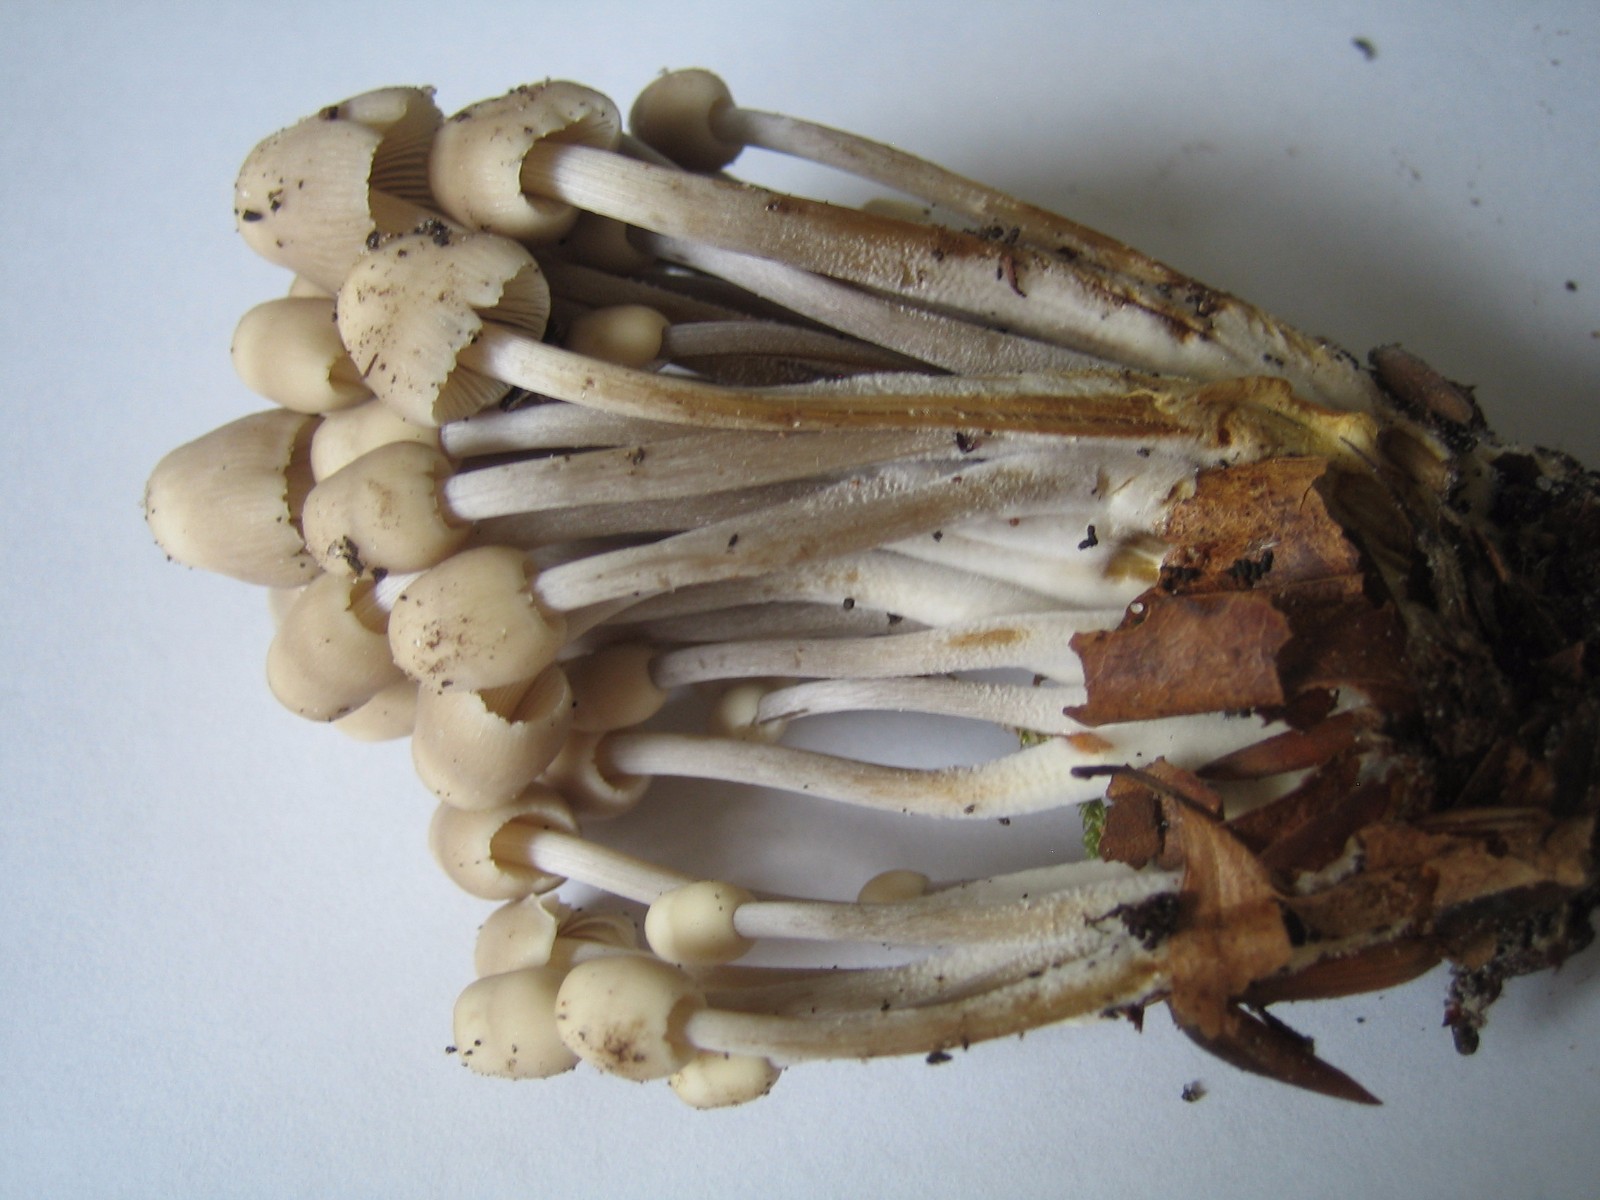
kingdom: Fungi
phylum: Basidiomycota
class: Agaricomycetes
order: Agaricales
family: Mycenaceae
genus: Mycena
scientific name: Mycena inclinata
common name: nikkende huesvamp
